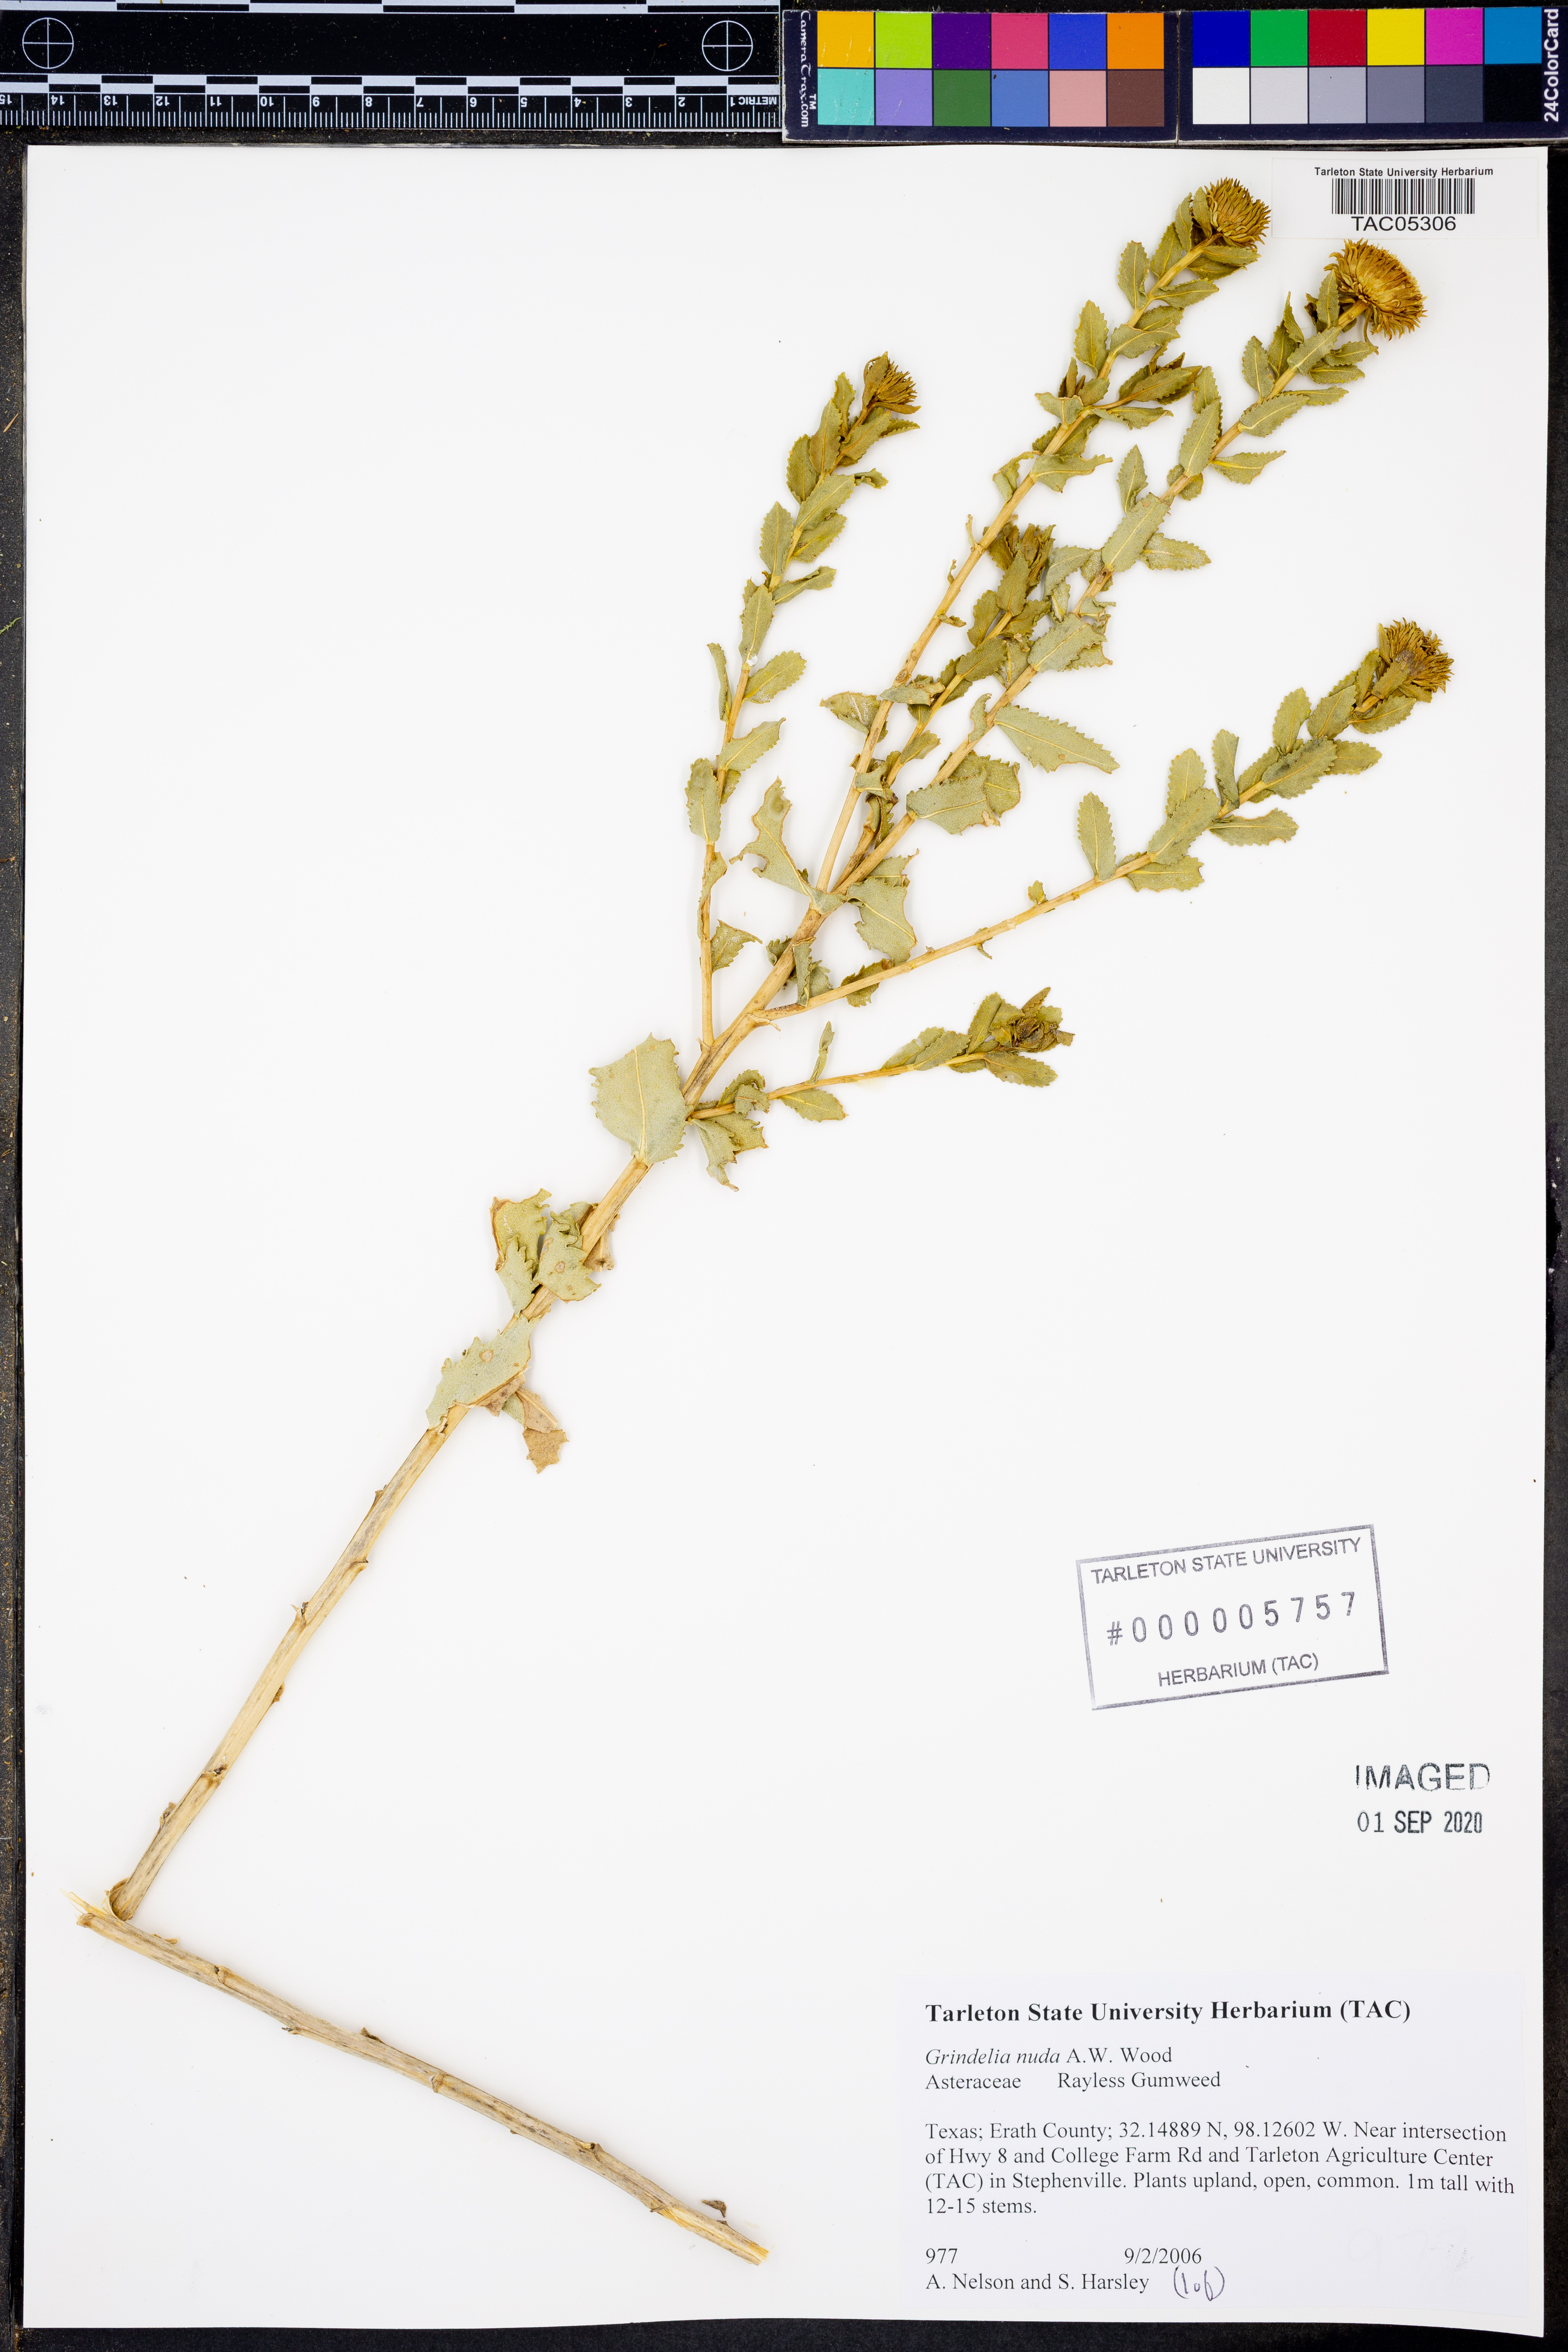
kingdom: Plantae
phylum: Tracheophyta
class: Magnoliopsida
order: Asterales
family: Asteraceae
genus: Grindelia
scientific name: Grindelia nuda
